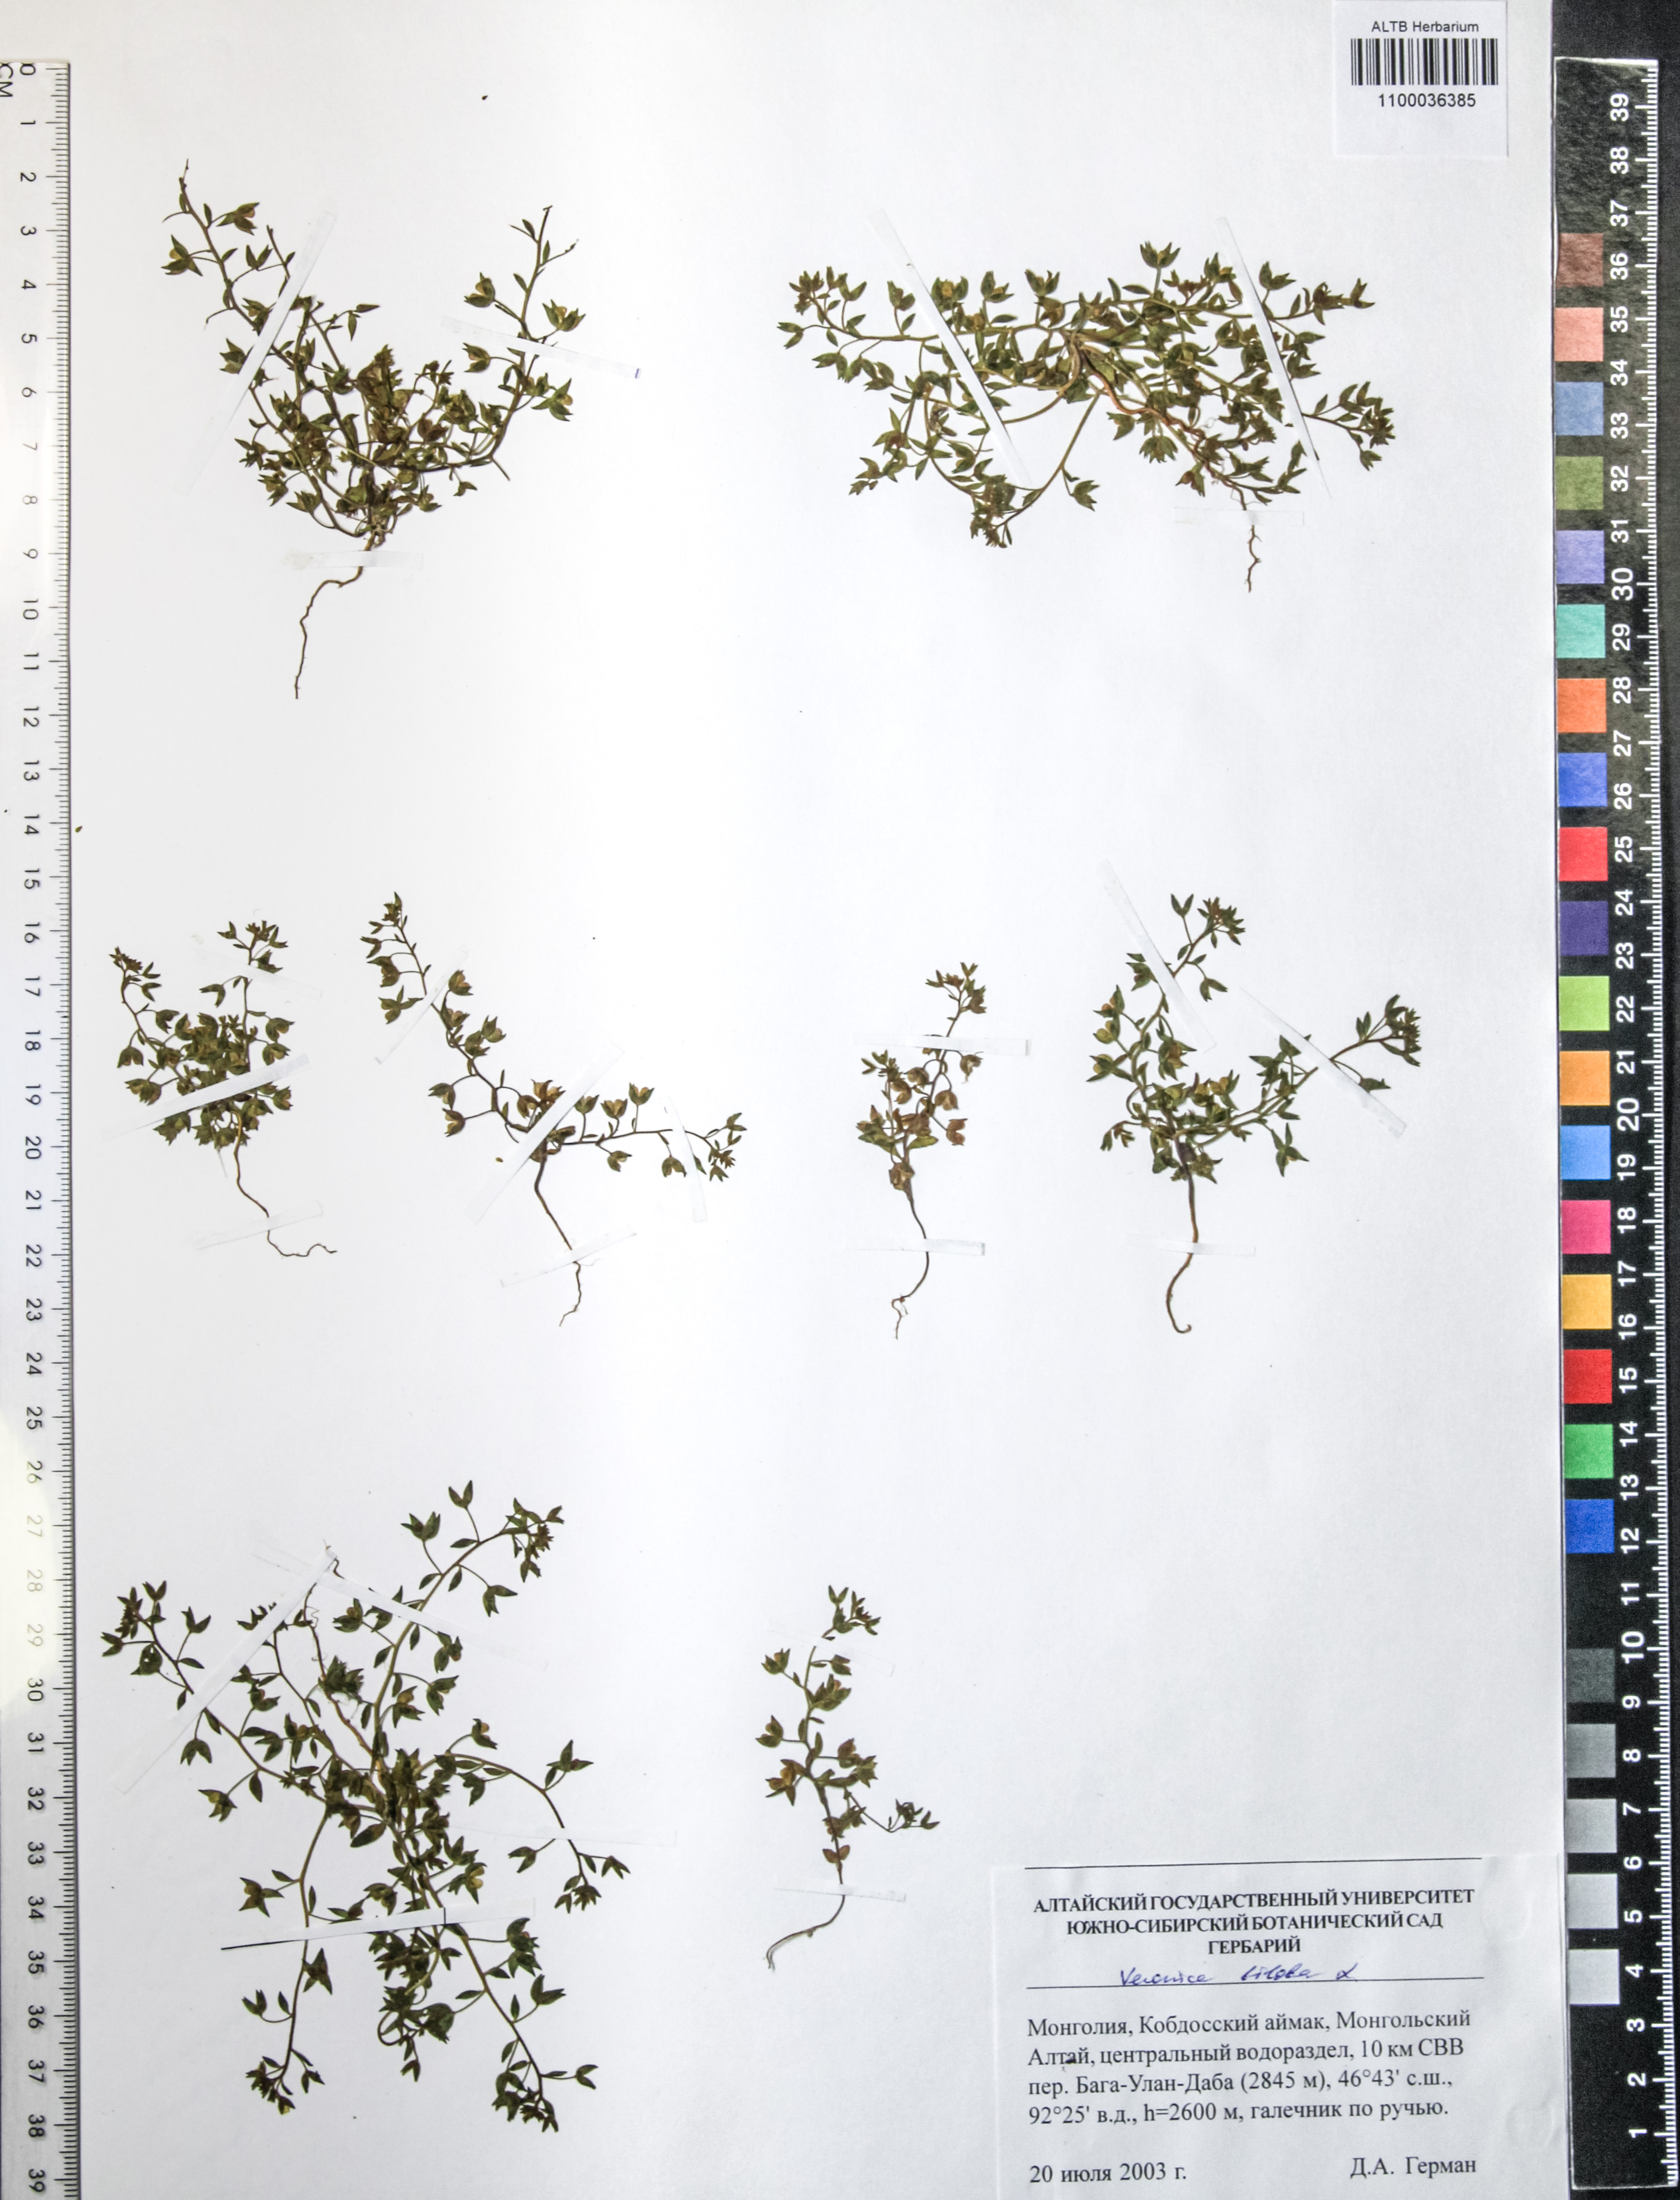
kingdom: Plantae
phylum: Tracheophyta
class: Magnoliopsida
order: Lamiales
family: Plantaginaceae
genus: Veronica
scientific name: Veronica biloba
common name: Twolobe speedwell
